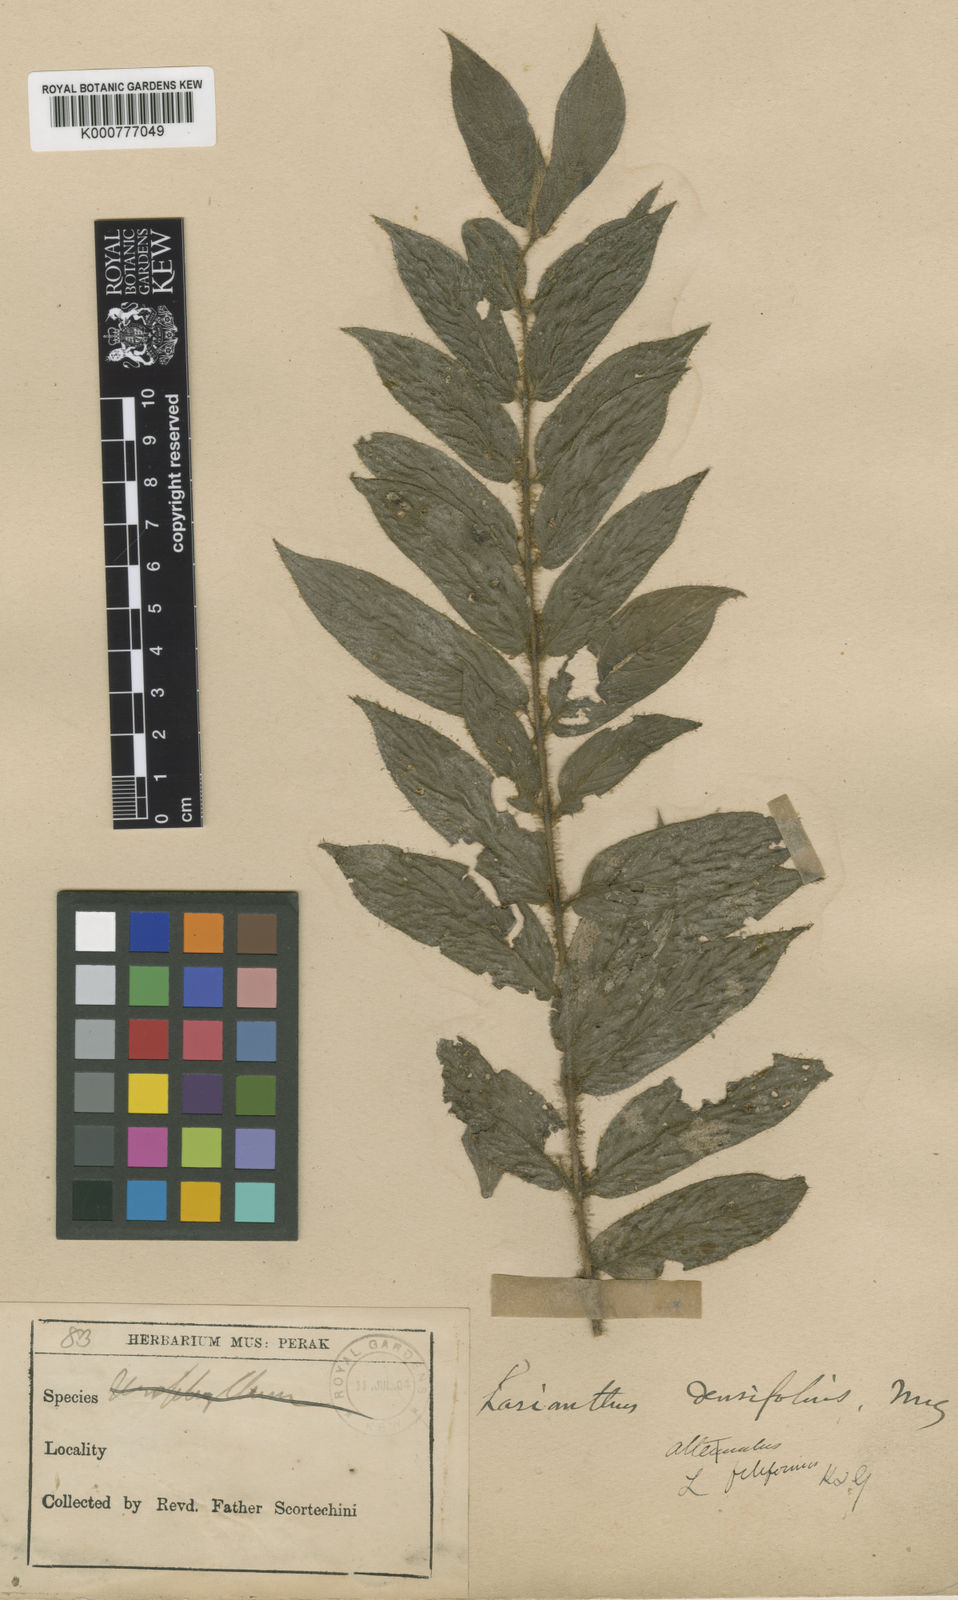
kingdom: Plantae
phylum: Tracheophyta
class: Magnoliopsida
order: Gentianales
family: Rubiaceae
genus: Lasianthus
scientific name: Lasianthus filiformis
